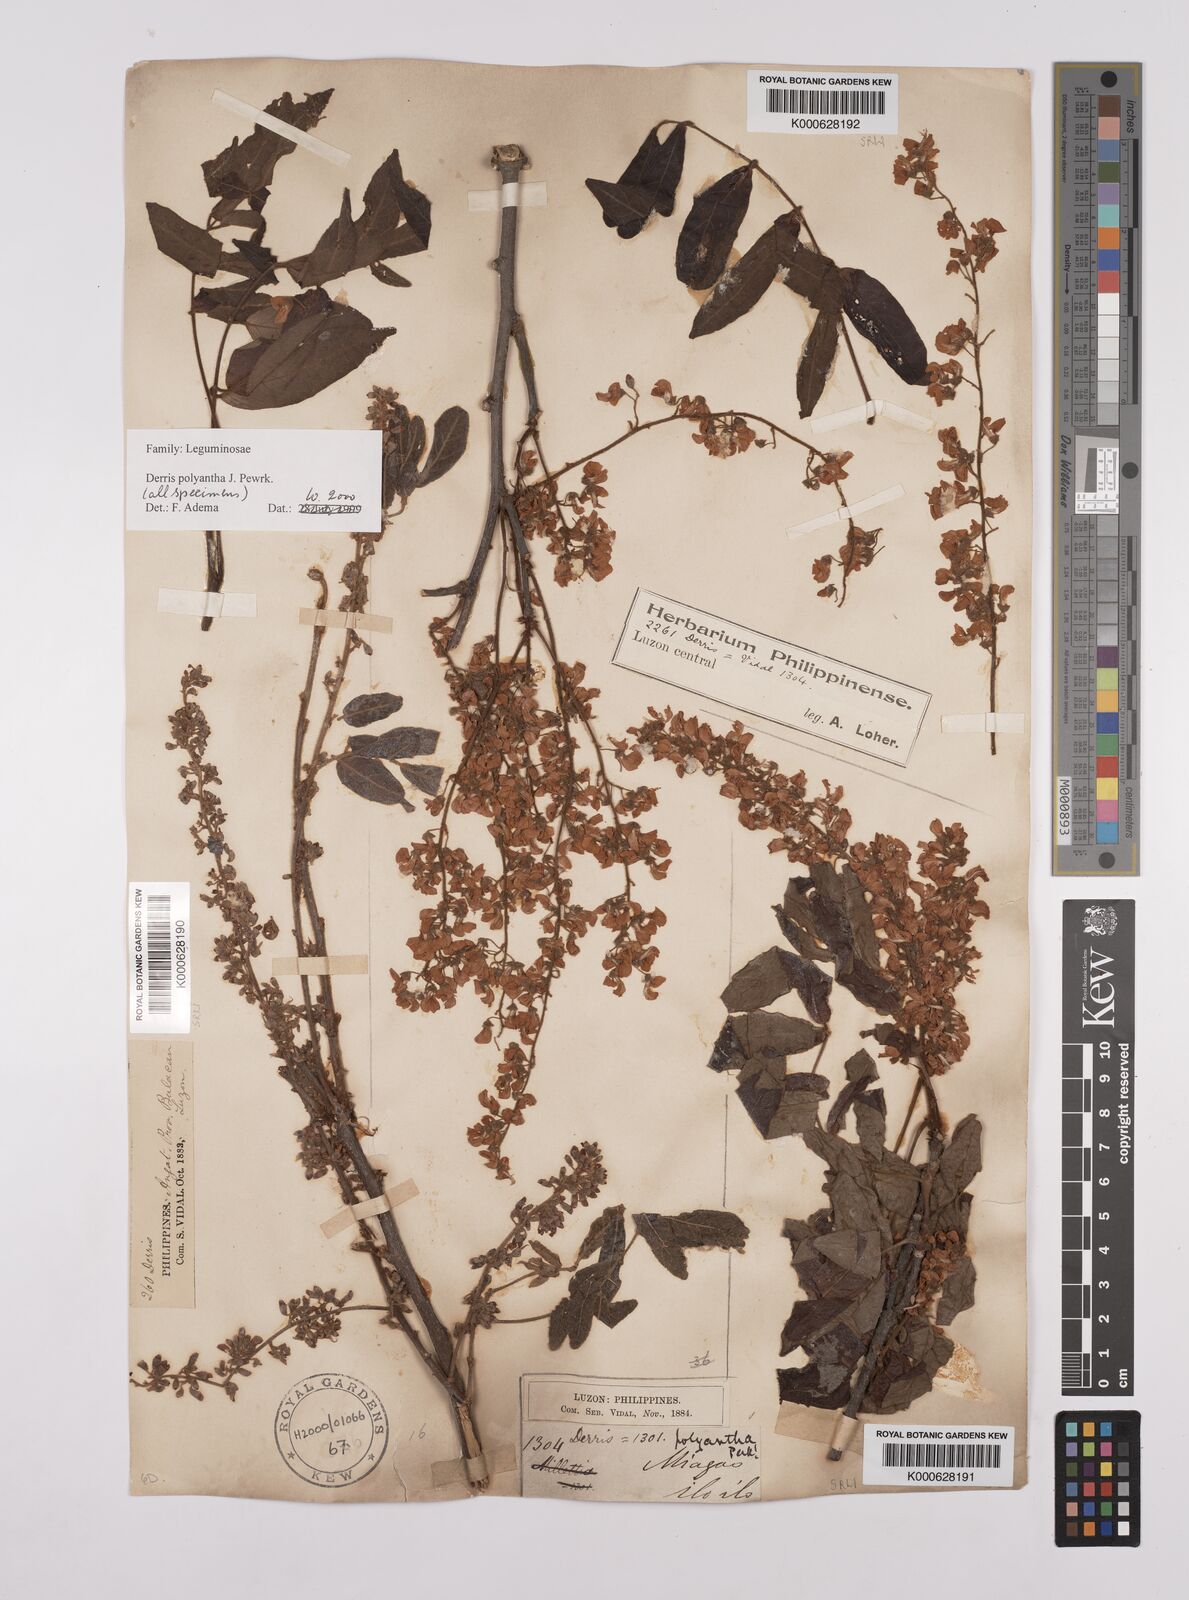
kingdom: Plantae
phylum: Tracheophyta
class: Magnoliopsida
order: Fabales
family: Fabaceae
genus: Derris
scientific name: Derris polyantha
